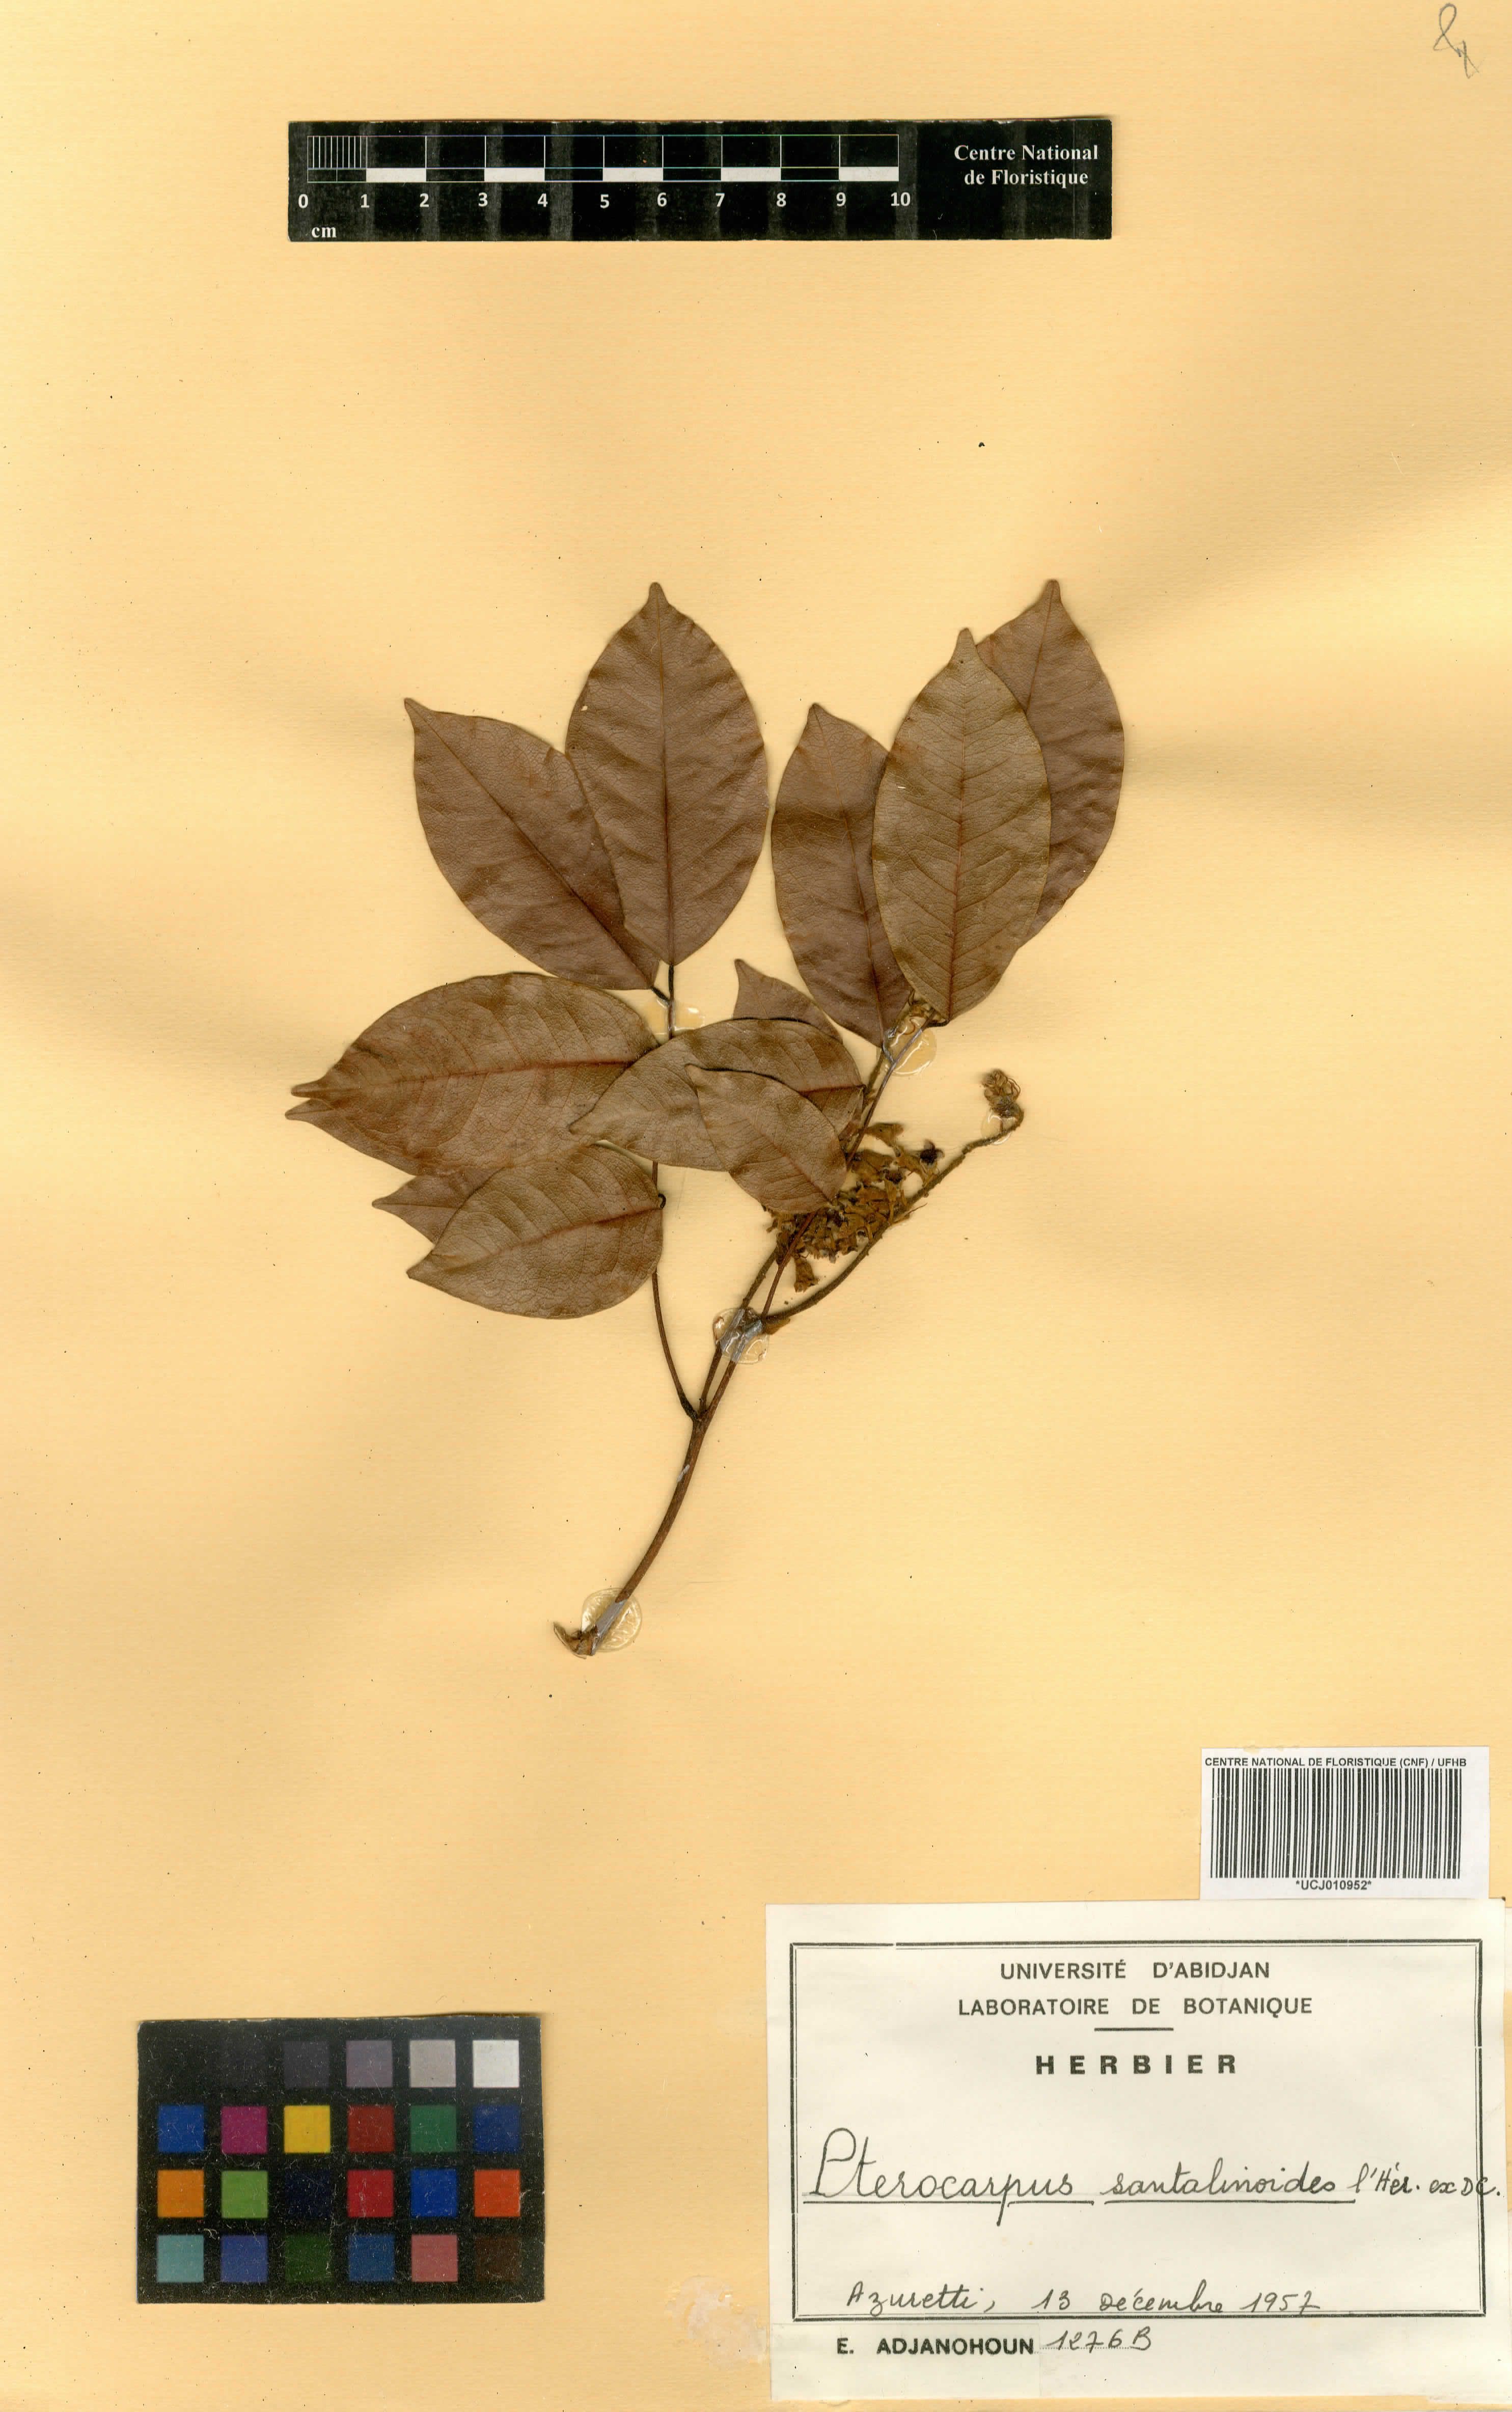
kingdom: Plantae
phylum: Tracheophyta
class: Magnoliopsida
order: Fabales
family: Fabaceae
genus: Pterocarpus
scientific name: Pterocarpus santalinoides
